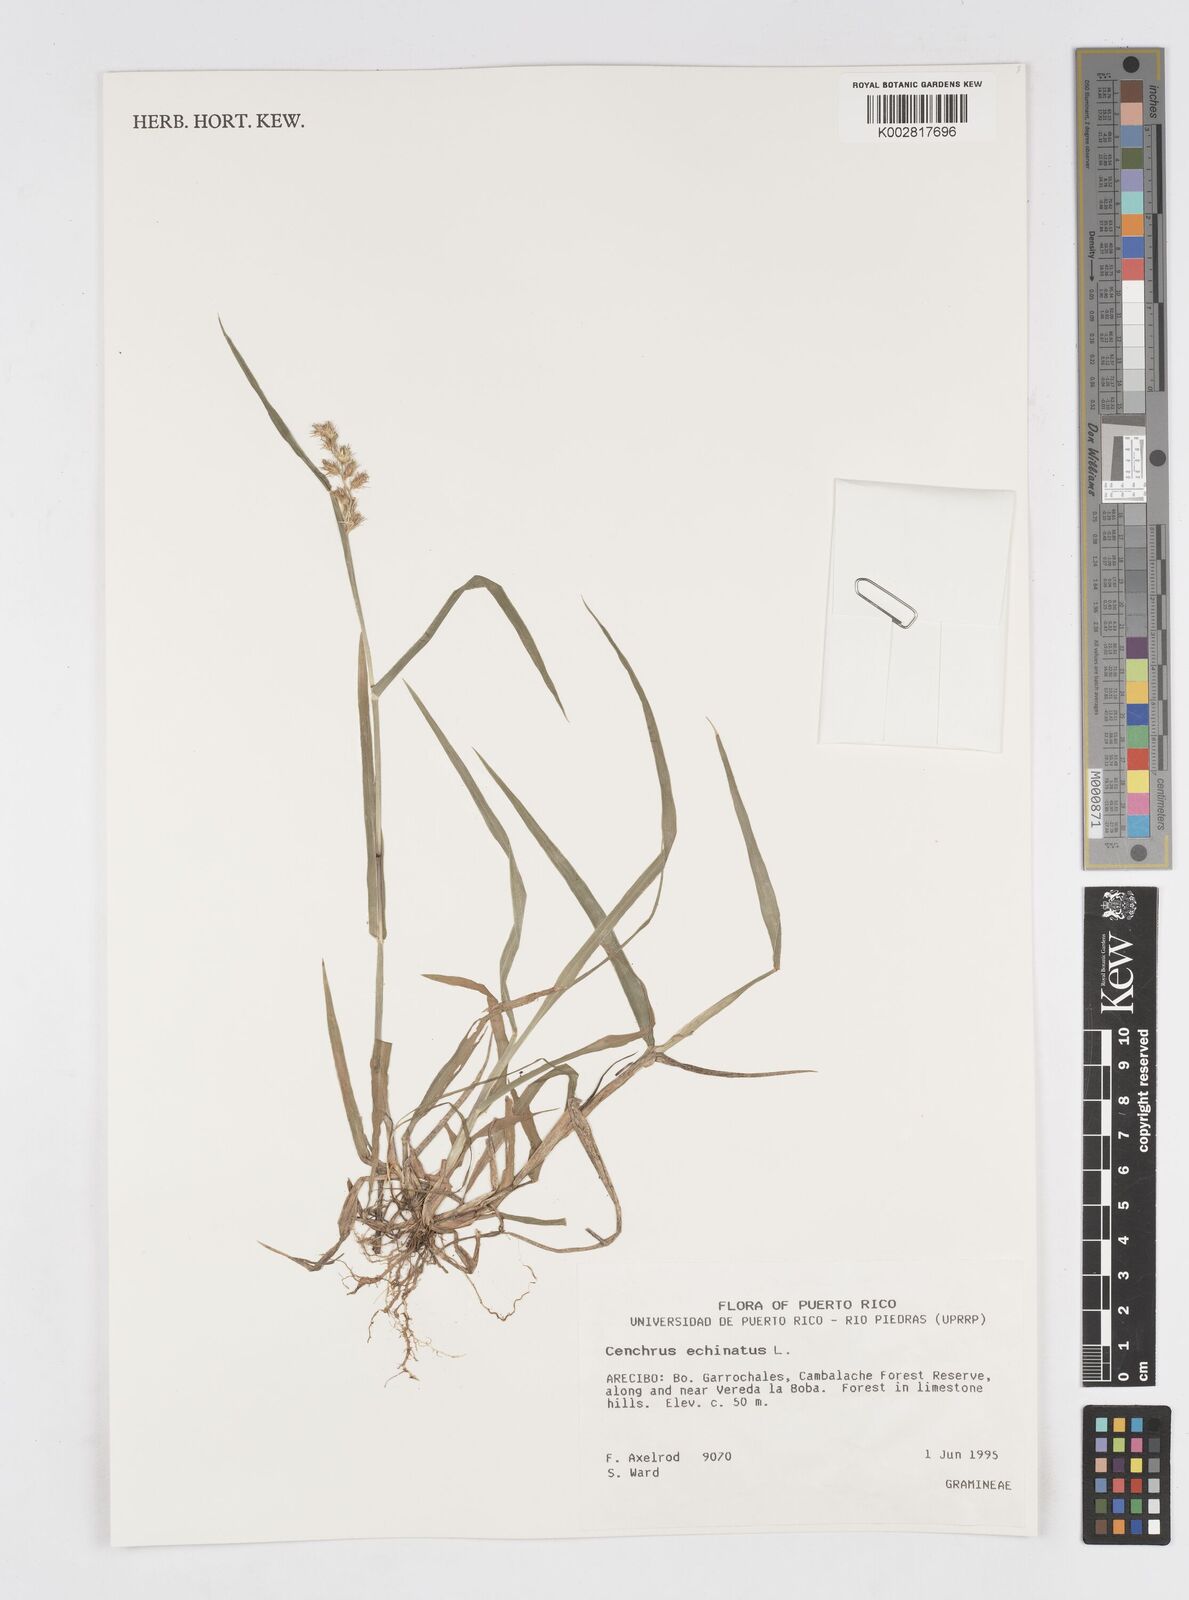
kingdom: Plantae
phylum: Tracheophyta
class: Liliopsida
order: Poales
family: Poaceae
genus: Cenchrus
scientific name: Cenchrus
